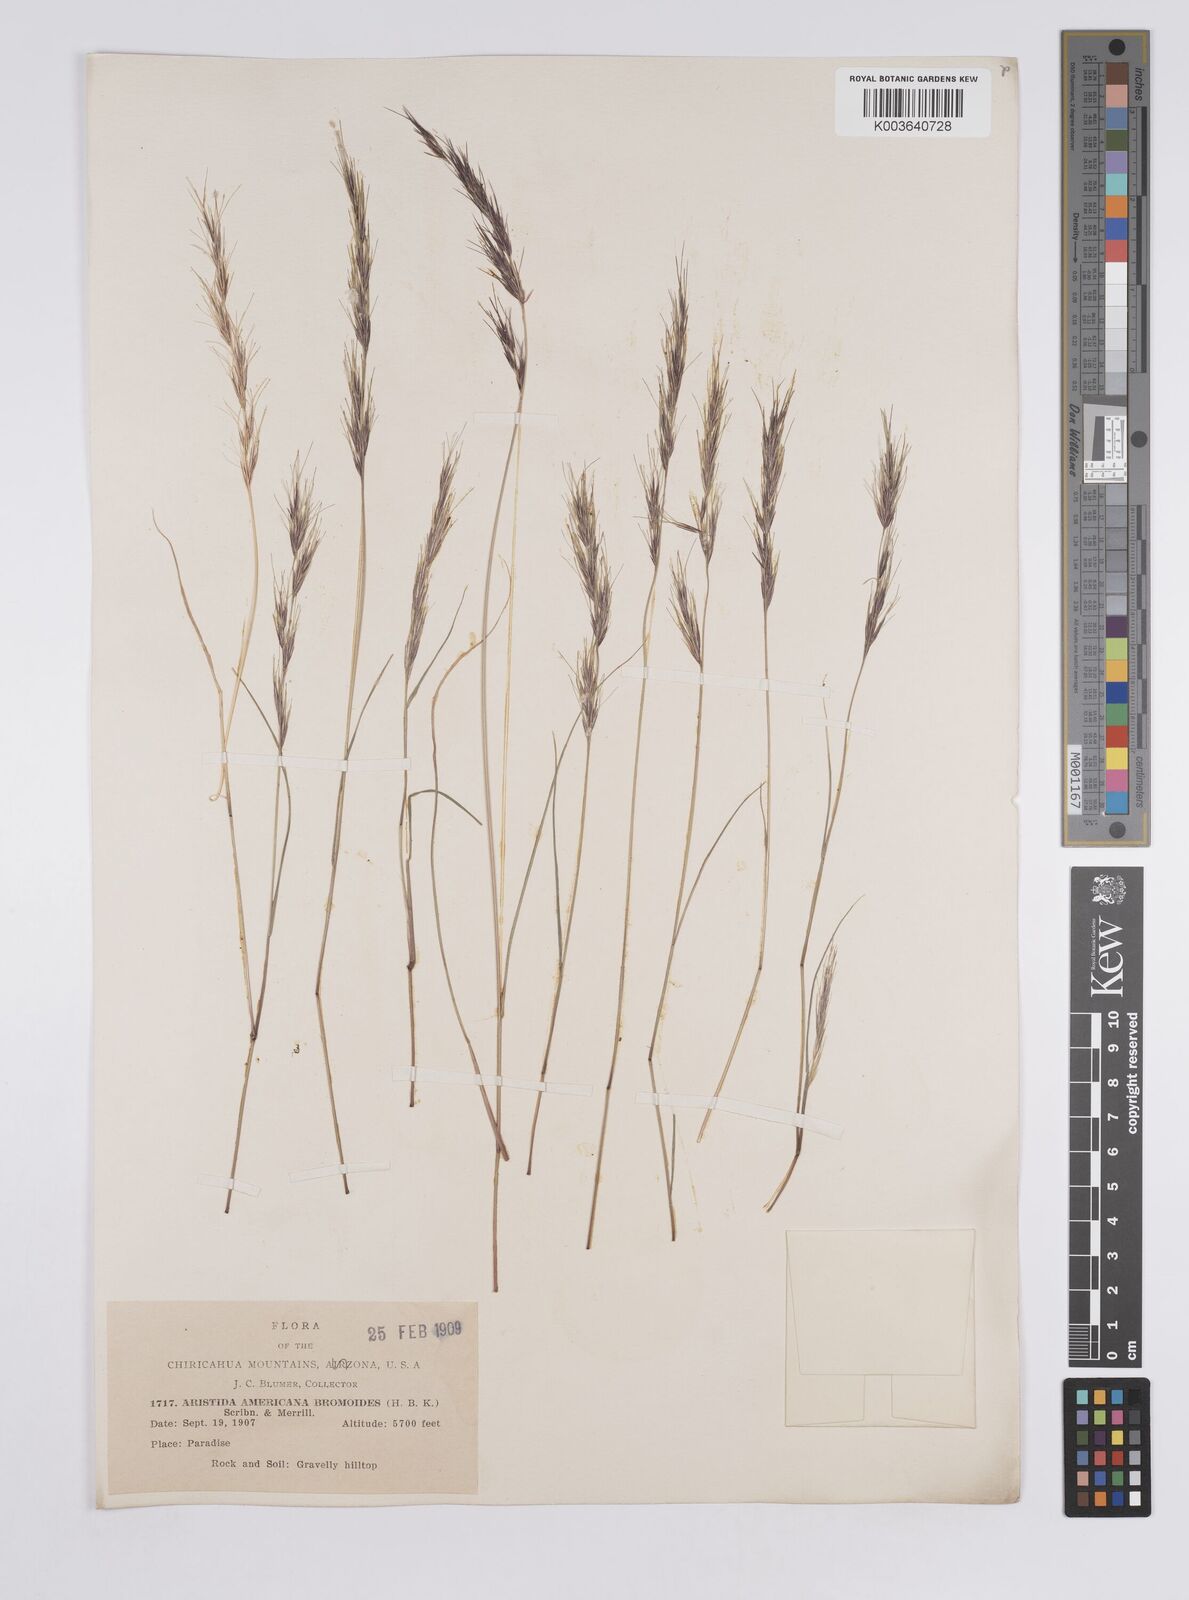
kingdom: Plantae
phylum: Tracheophyta
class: Liliopsida
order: Poales
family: Poaceae
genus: Aristida
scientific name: Aristida adscensionis
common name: Sixweeks threeawn
